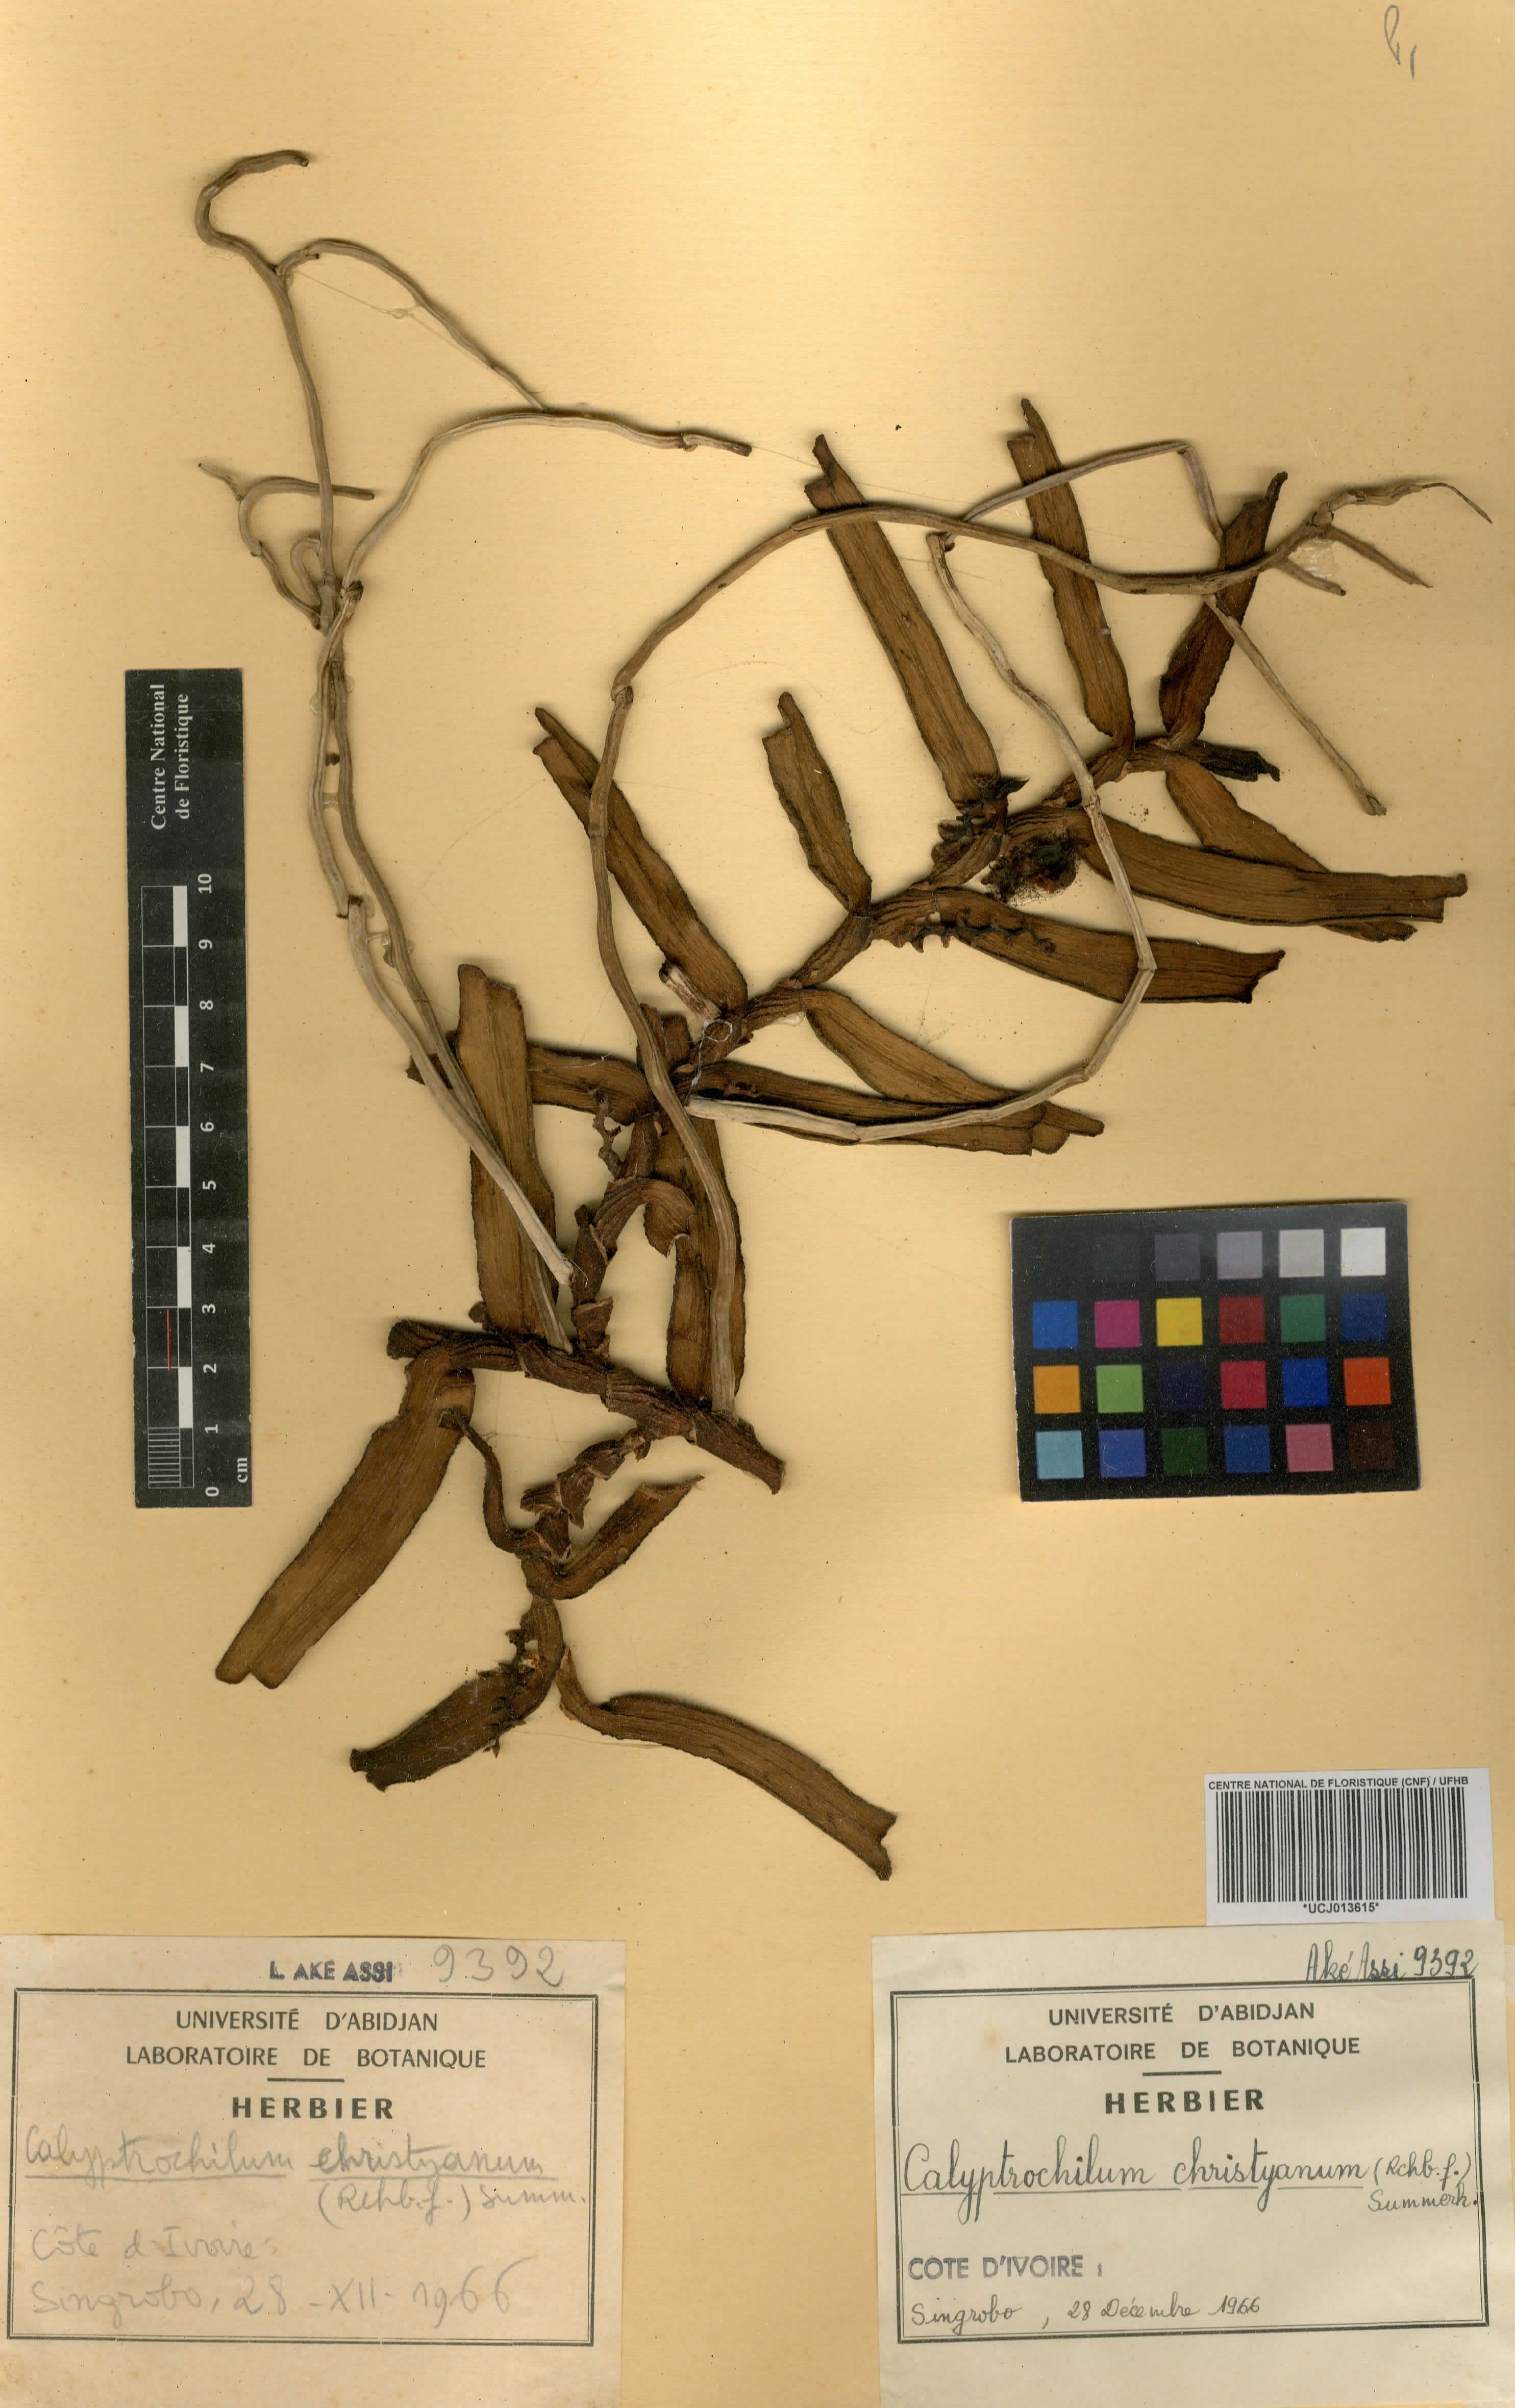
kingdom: Plantae
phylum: Tracheophyta
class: Liliopsida
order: Asparagales
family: Orchidaceae
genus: Calyptrochilum
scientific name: Calyptrochilum christyanum
